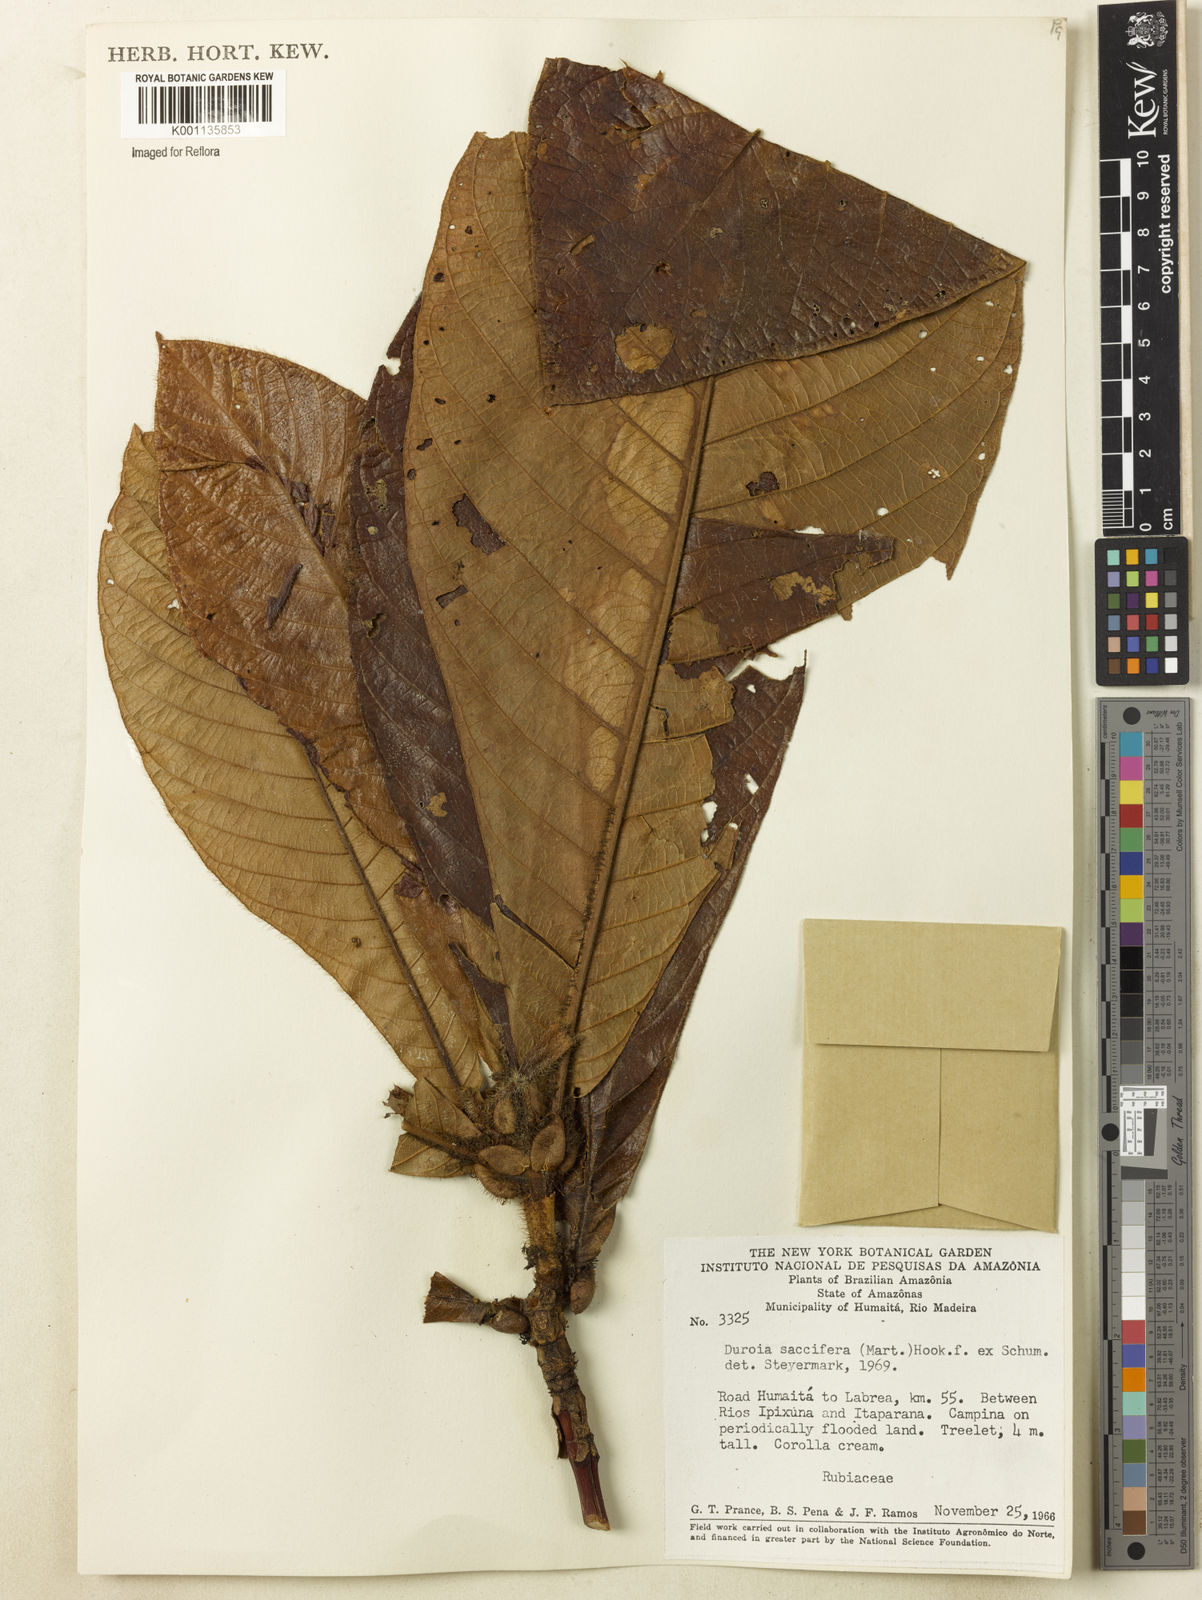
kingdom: Plantae
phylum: Tracheophyta
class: Magnoliopsida
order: Gentianales
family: Rubiaceae
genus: Duroia
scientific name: Duroia saccifera
